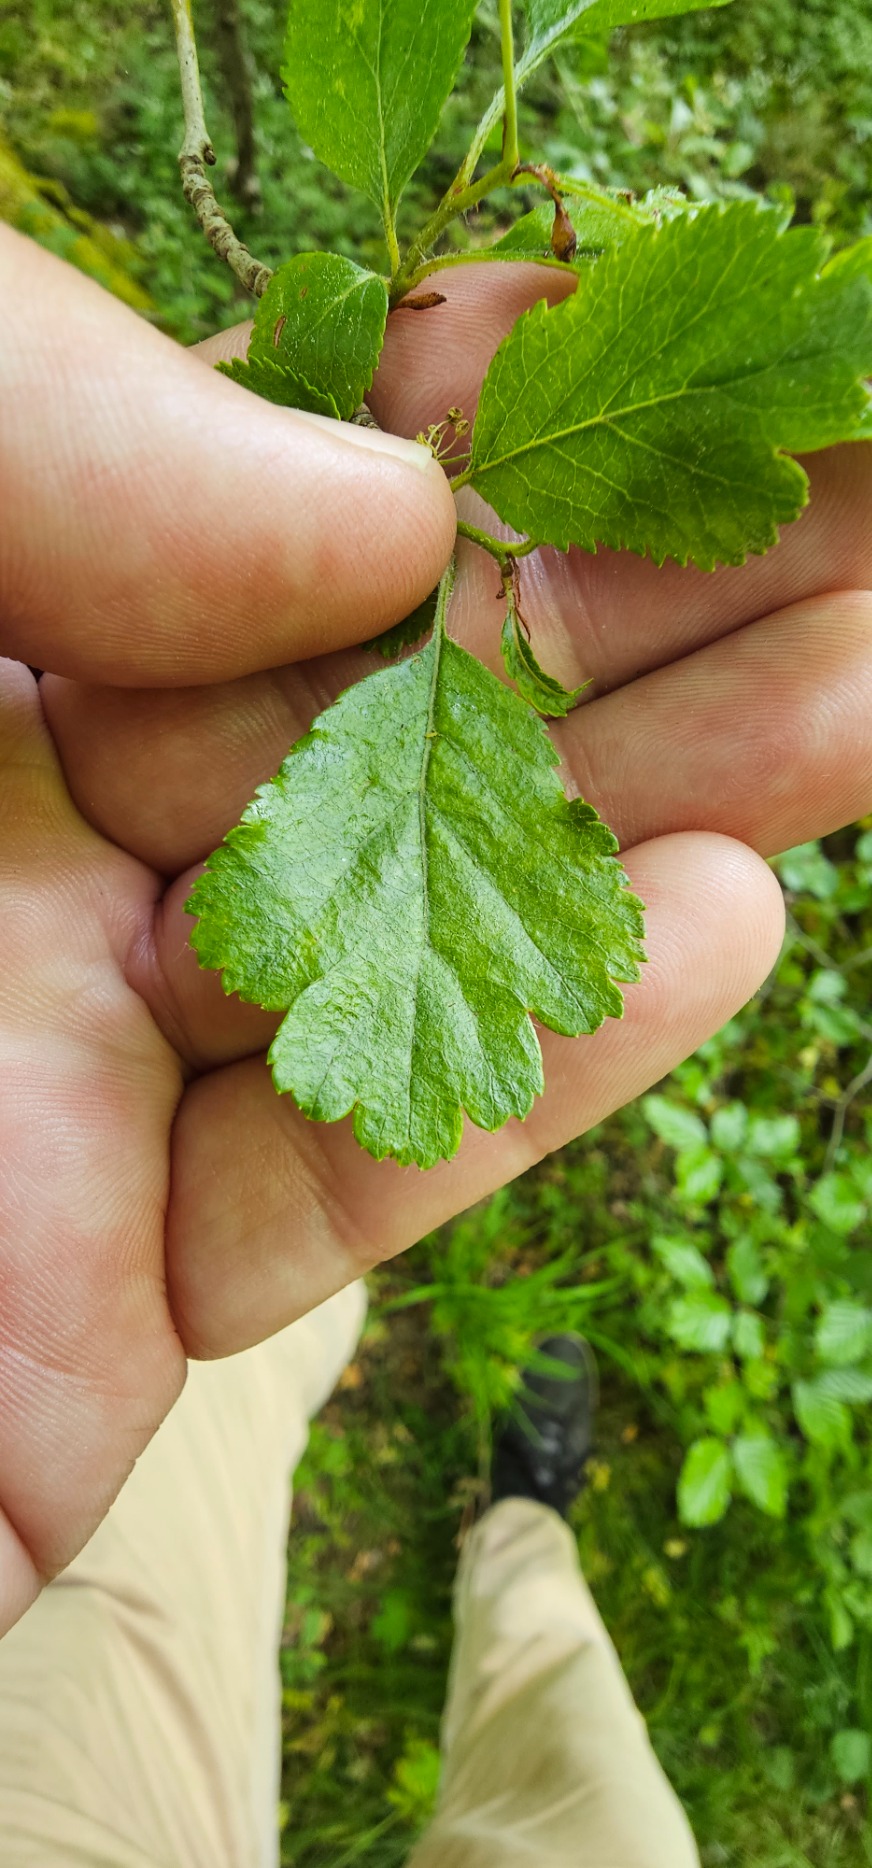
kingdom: Plantae
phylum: Tracheophyta
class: Magnoliopsida
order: Rosales
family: Rosaceae
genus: Crataegus
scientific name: Crataegus laevigata
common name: Almindelig hvidtjørn
